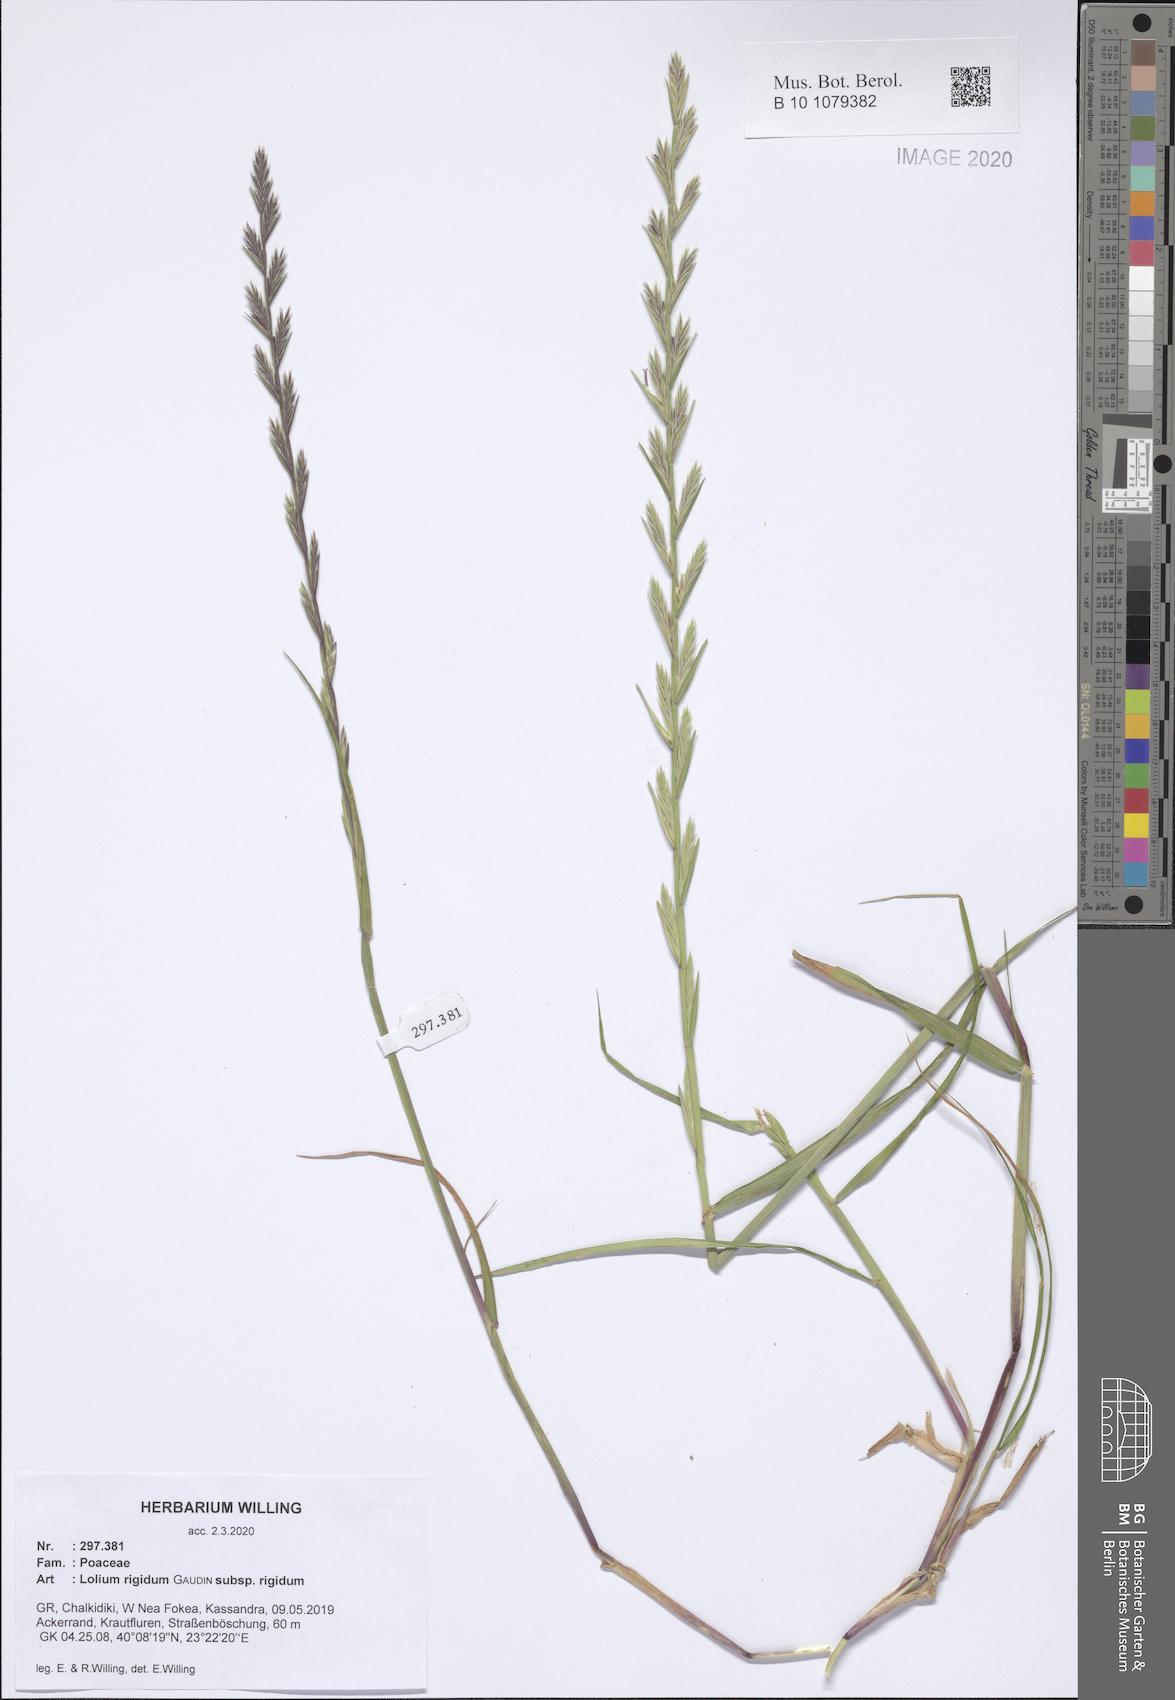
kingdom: Plantae
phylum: Tracheophyta
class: Liliopsida
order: Poales
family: Poaceae
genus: Lolium
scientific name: Lolium rigidum
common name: Wimmera ryegrass
